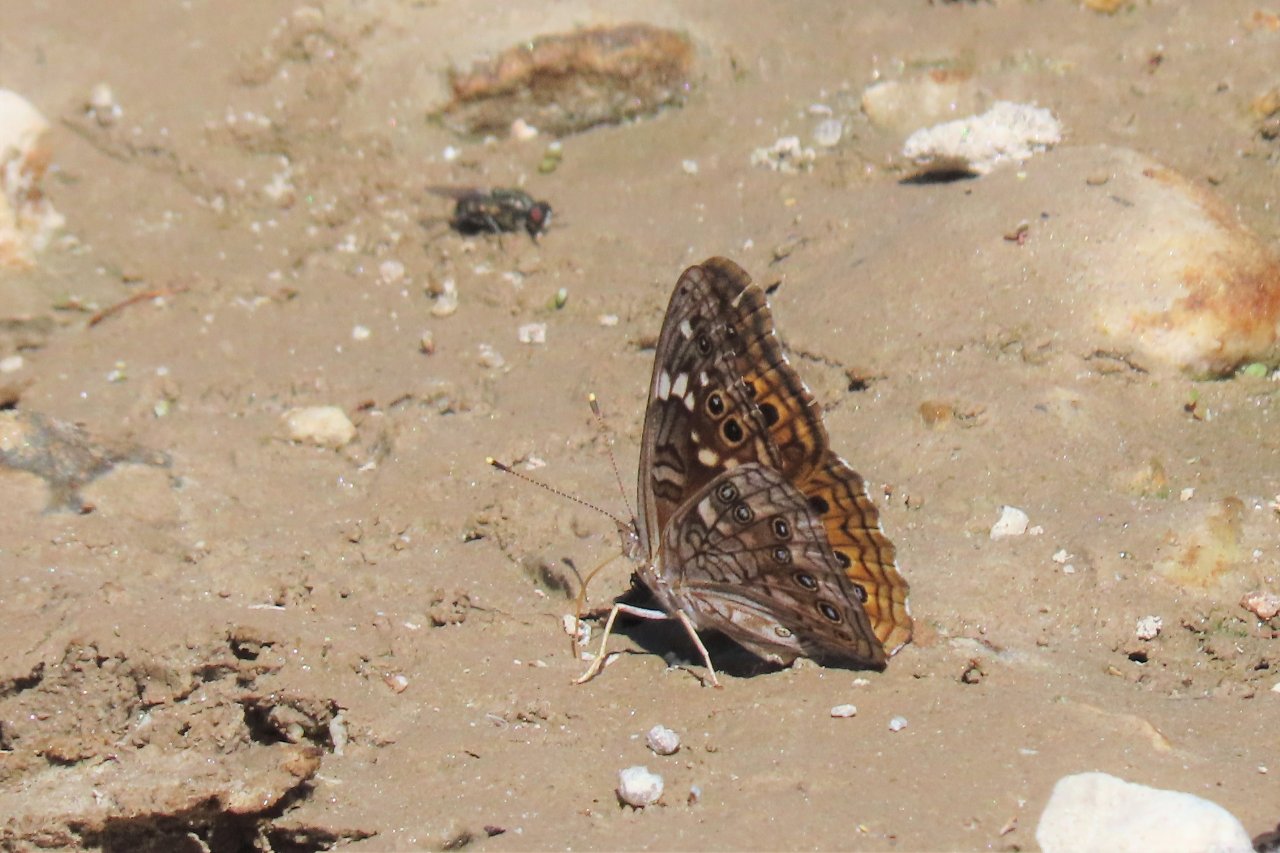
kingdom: Animalia
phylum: Arthropoda
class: Insecta
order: Lepidoptera
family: Nymphalidae
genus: Asterocampa
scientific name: Asterocampa leilia
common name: Empress Leilia
